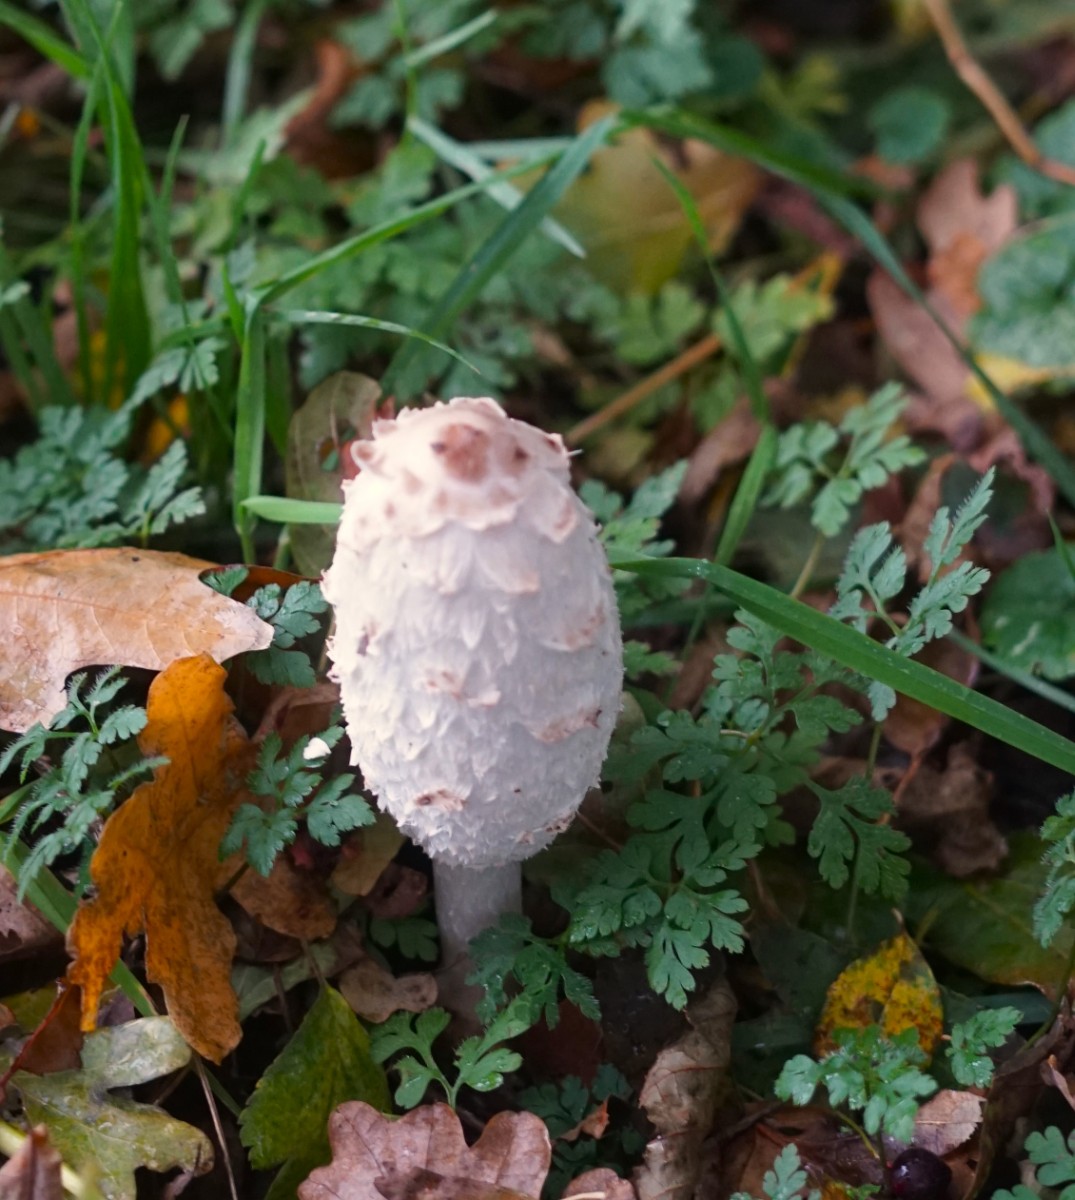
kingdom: Fungi
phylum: Basidiomycota
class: Agaricomycetes
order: Agaricales
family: Agaricaceae
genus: Coprinus
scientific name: Coprinus comatus
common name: stor parykhat
